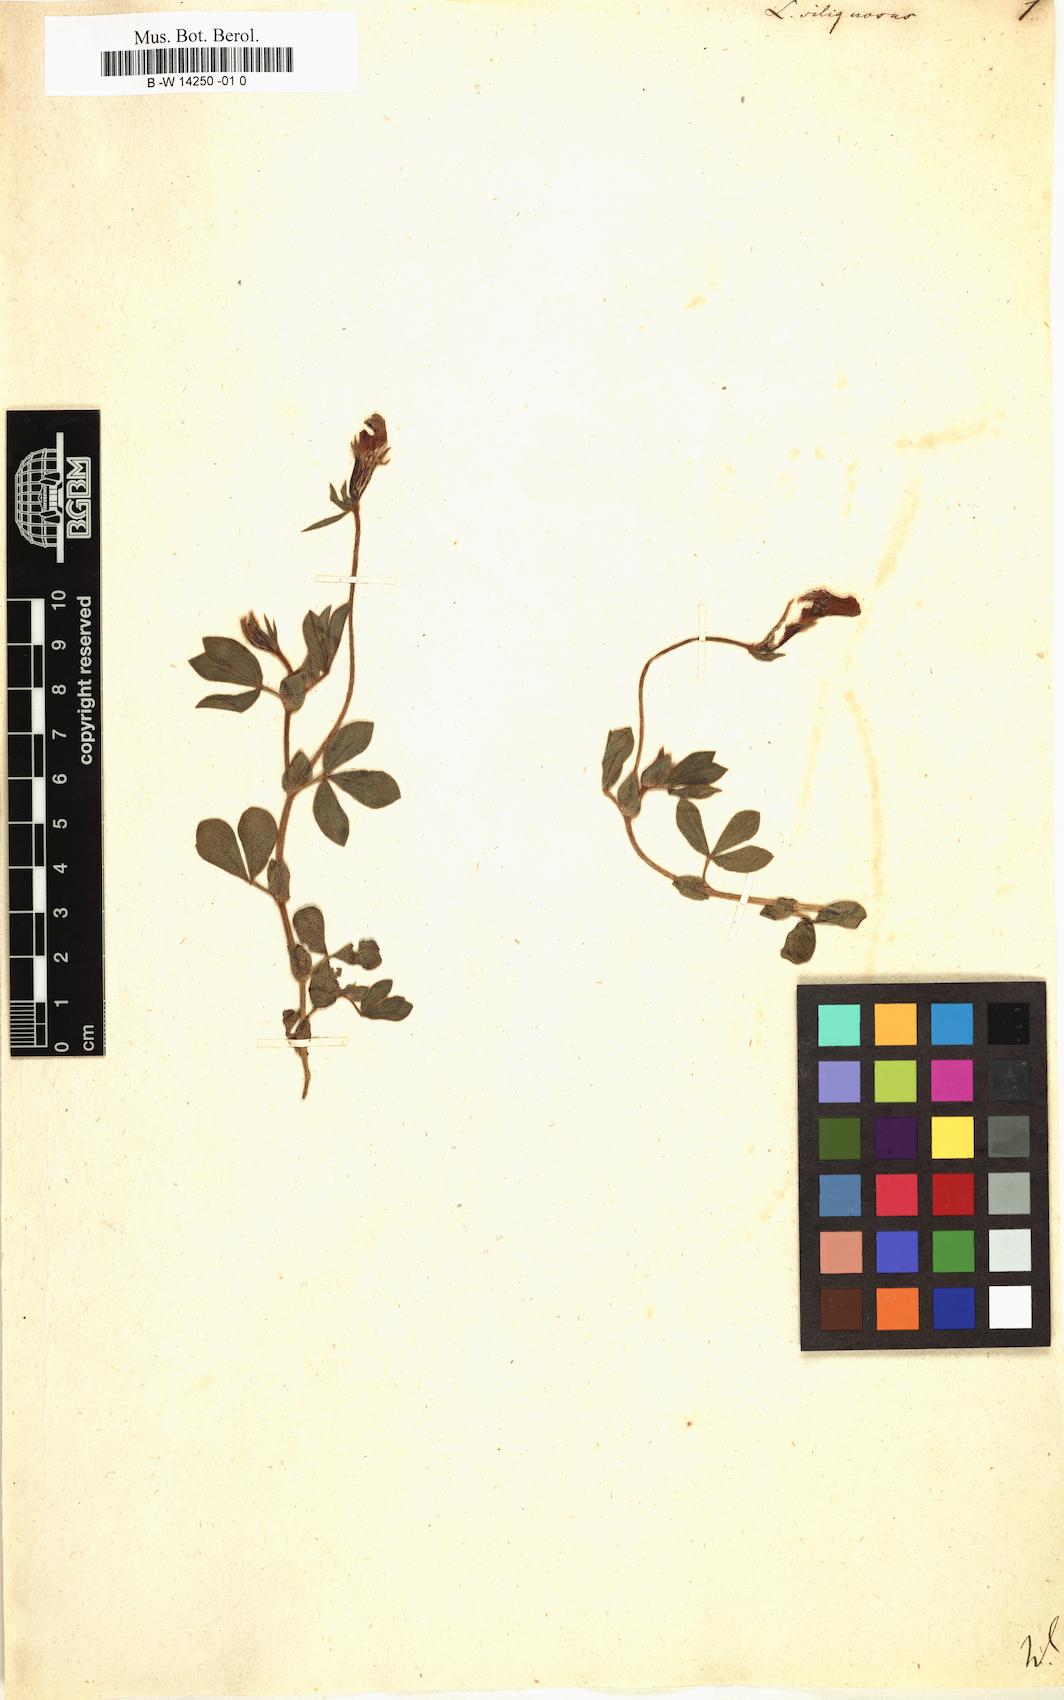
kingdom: Plantae
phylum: Tracheophyta
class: Magnoliopsida
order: Fabales
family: Fabaceae
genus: Lathyrus
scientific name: Lathyrus inconspicuus
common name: Inconspicuous pea
